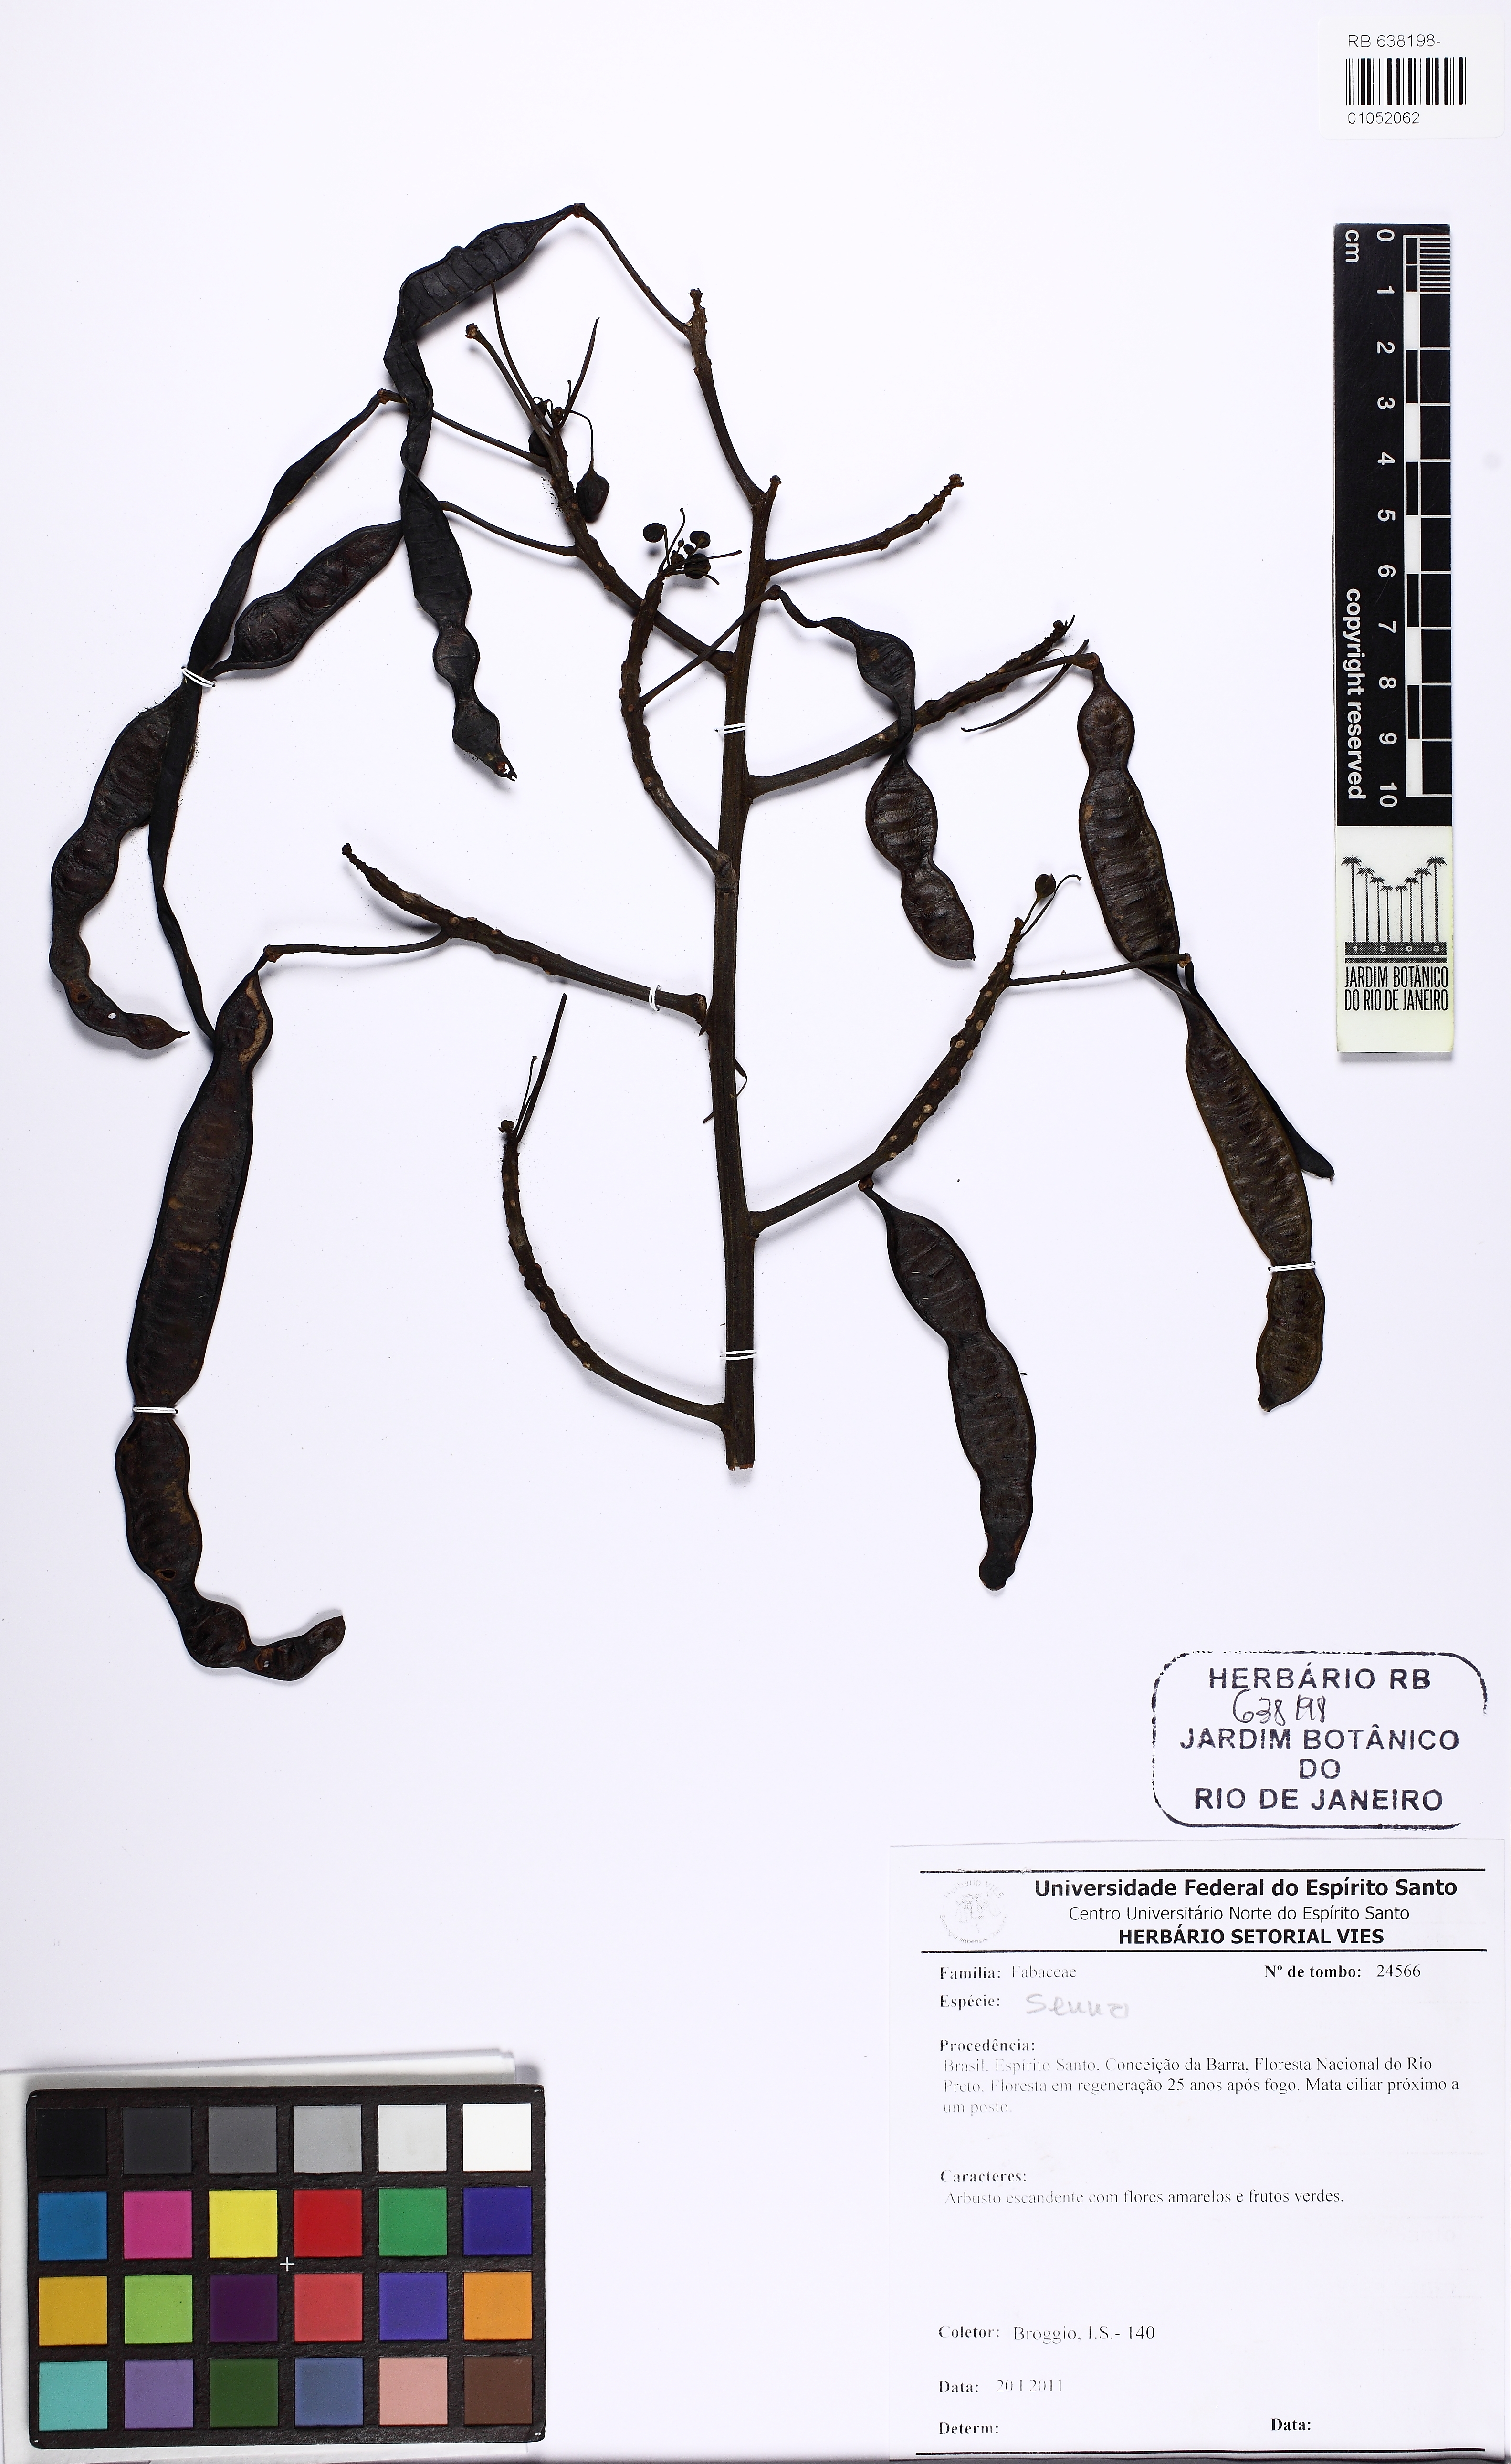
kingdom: Plantae
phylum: Tracheophyta
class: Magnoliopsida
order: Fabales
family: Fabaceae
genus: Senna
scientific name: Senna
